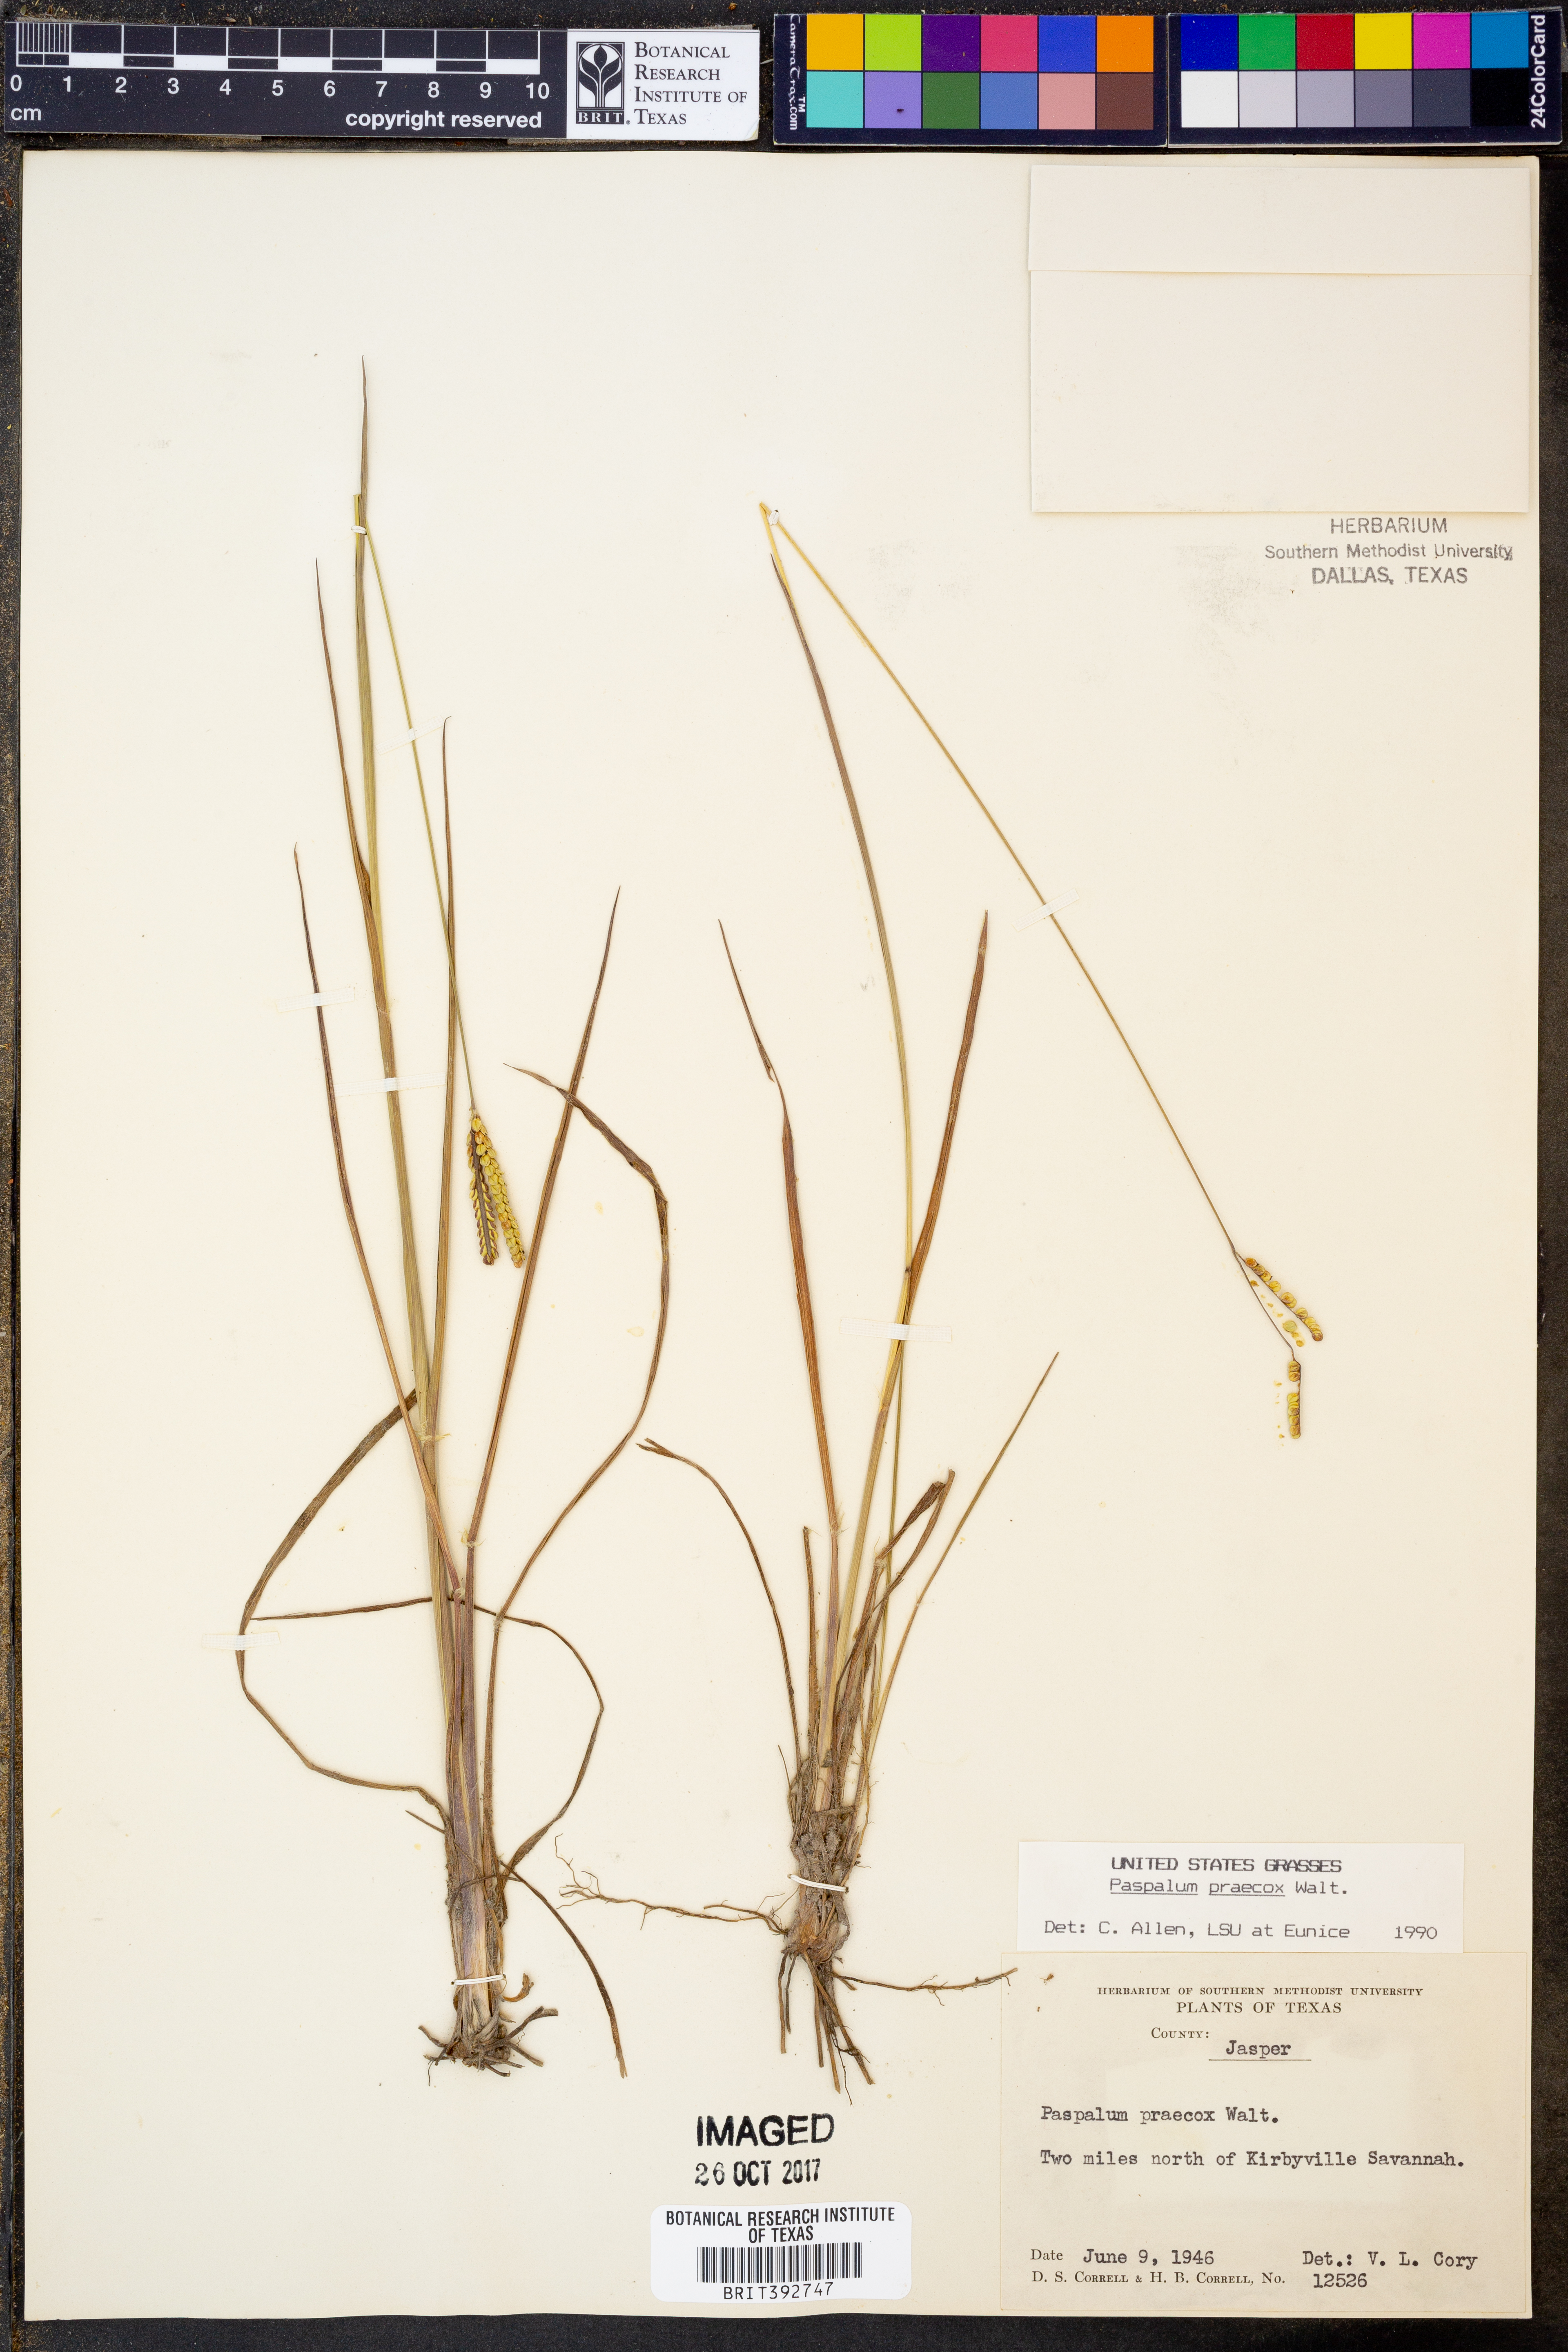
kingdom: Plantae
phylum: Tracheophyta
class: Liliopsida
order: Poales
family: Poaceae
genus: Paspalum
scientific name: Paspalum praecox
